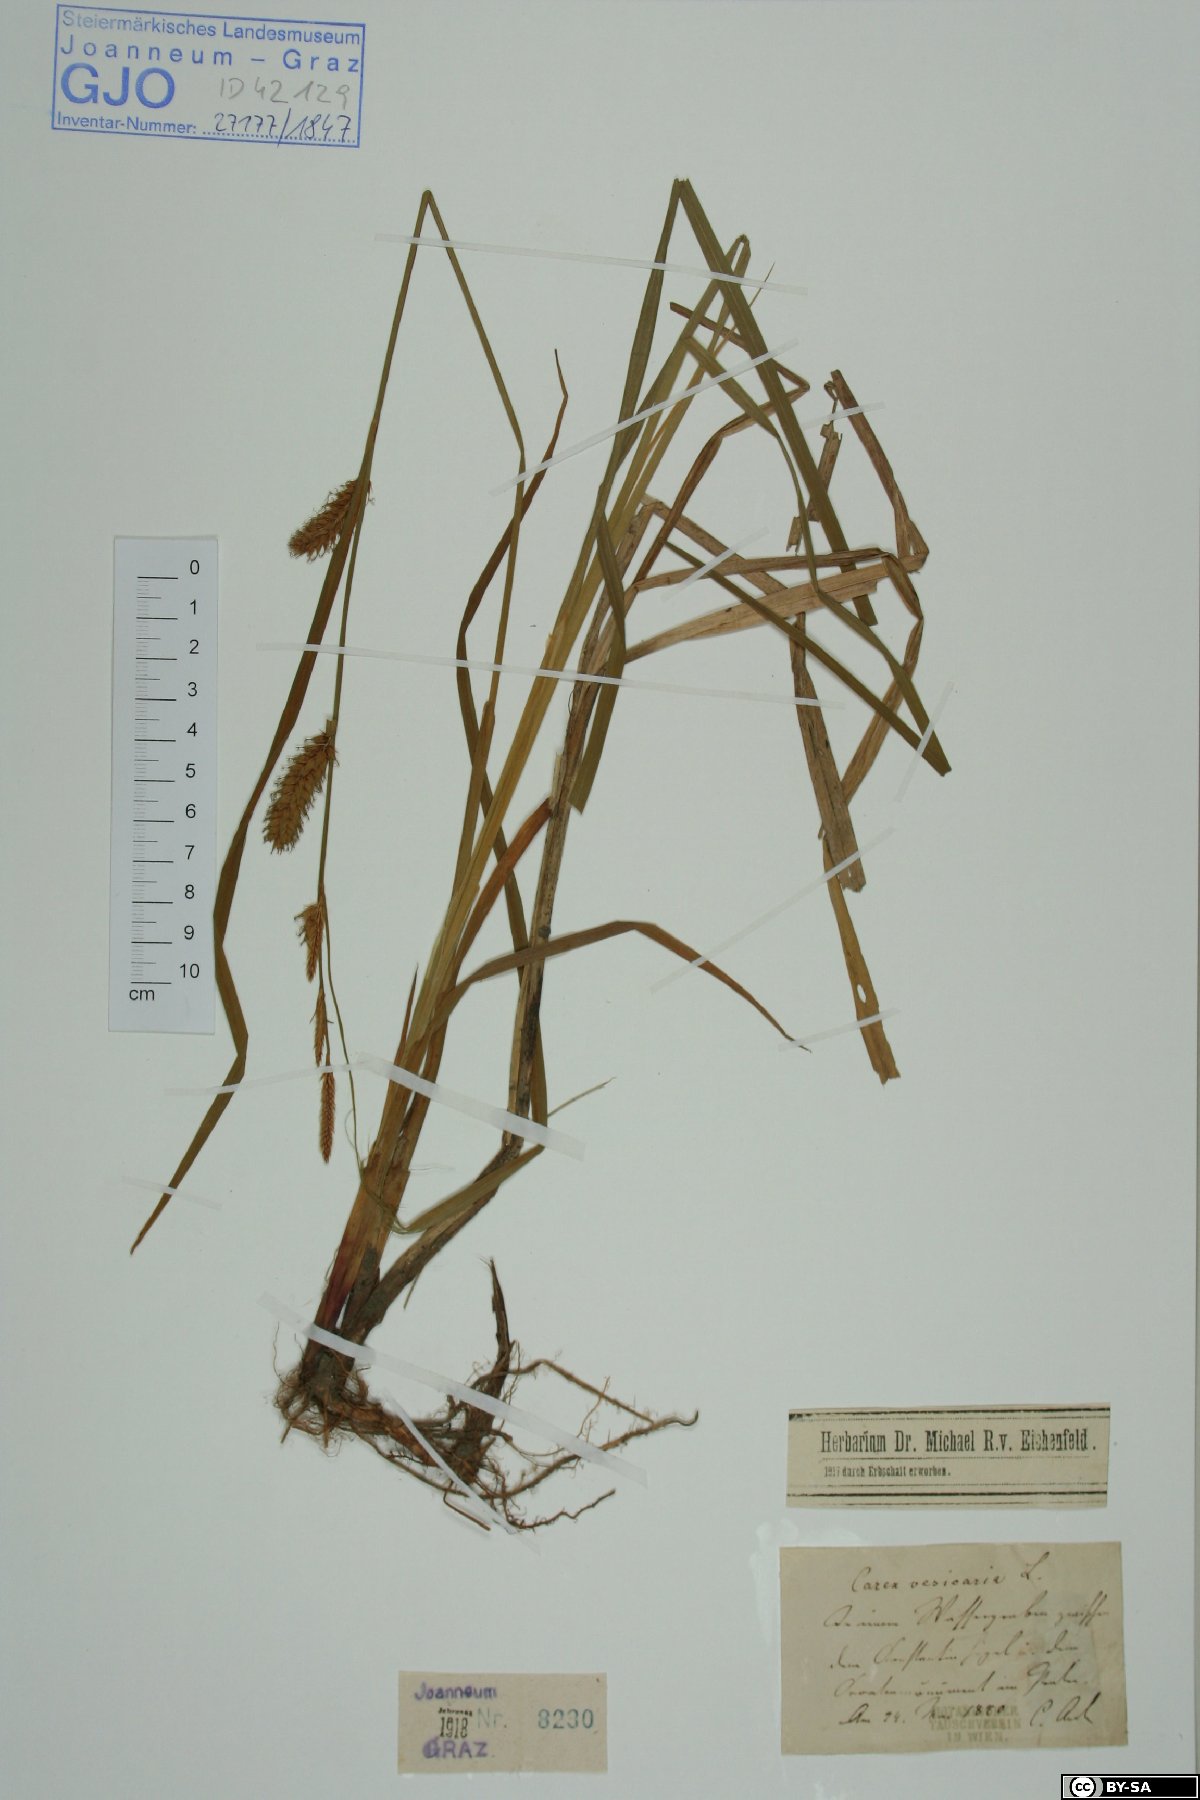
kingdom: Plantae
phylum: Tracheophyta
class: Liliopsida
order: Poales
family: Cyperaceae
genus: Carex
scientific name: Carex vesicaria
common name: Bladder-sedge
